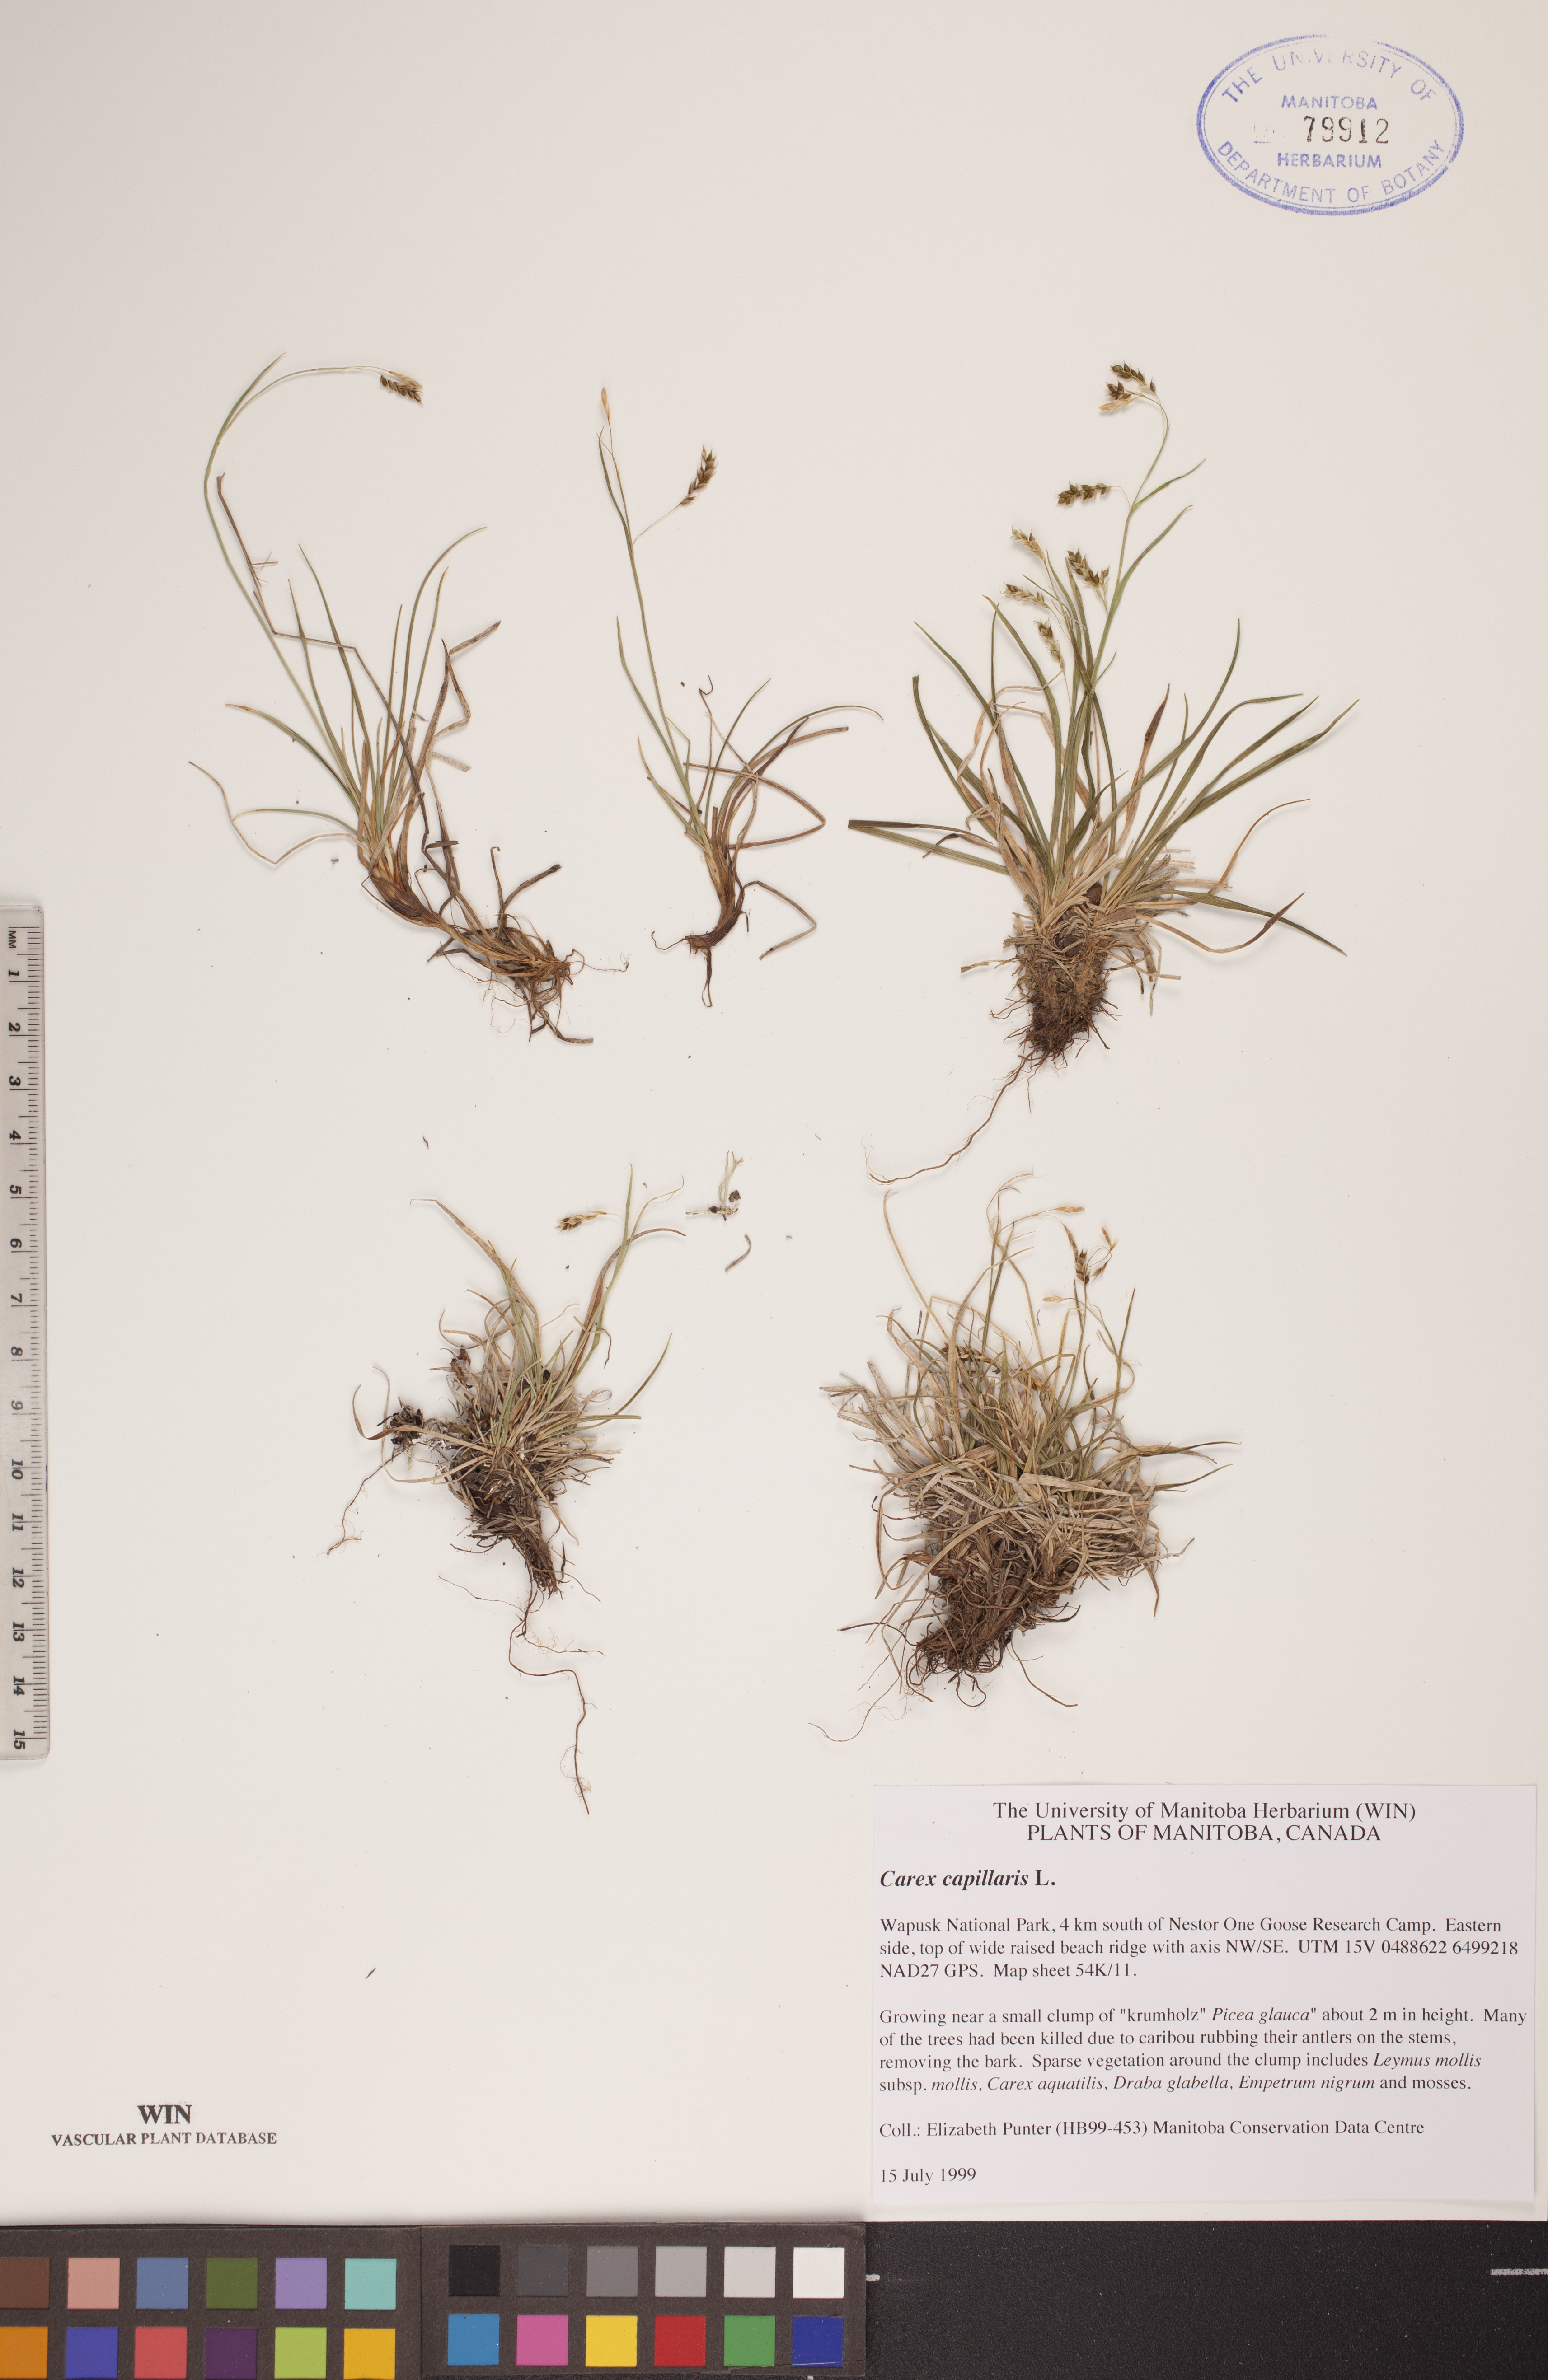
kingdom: Plantae
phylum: Tracheophyta
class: Liliopsida
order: Poales
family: Cyperaceae
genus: Carex
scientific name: Carex capillaris
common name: Hair sedge
